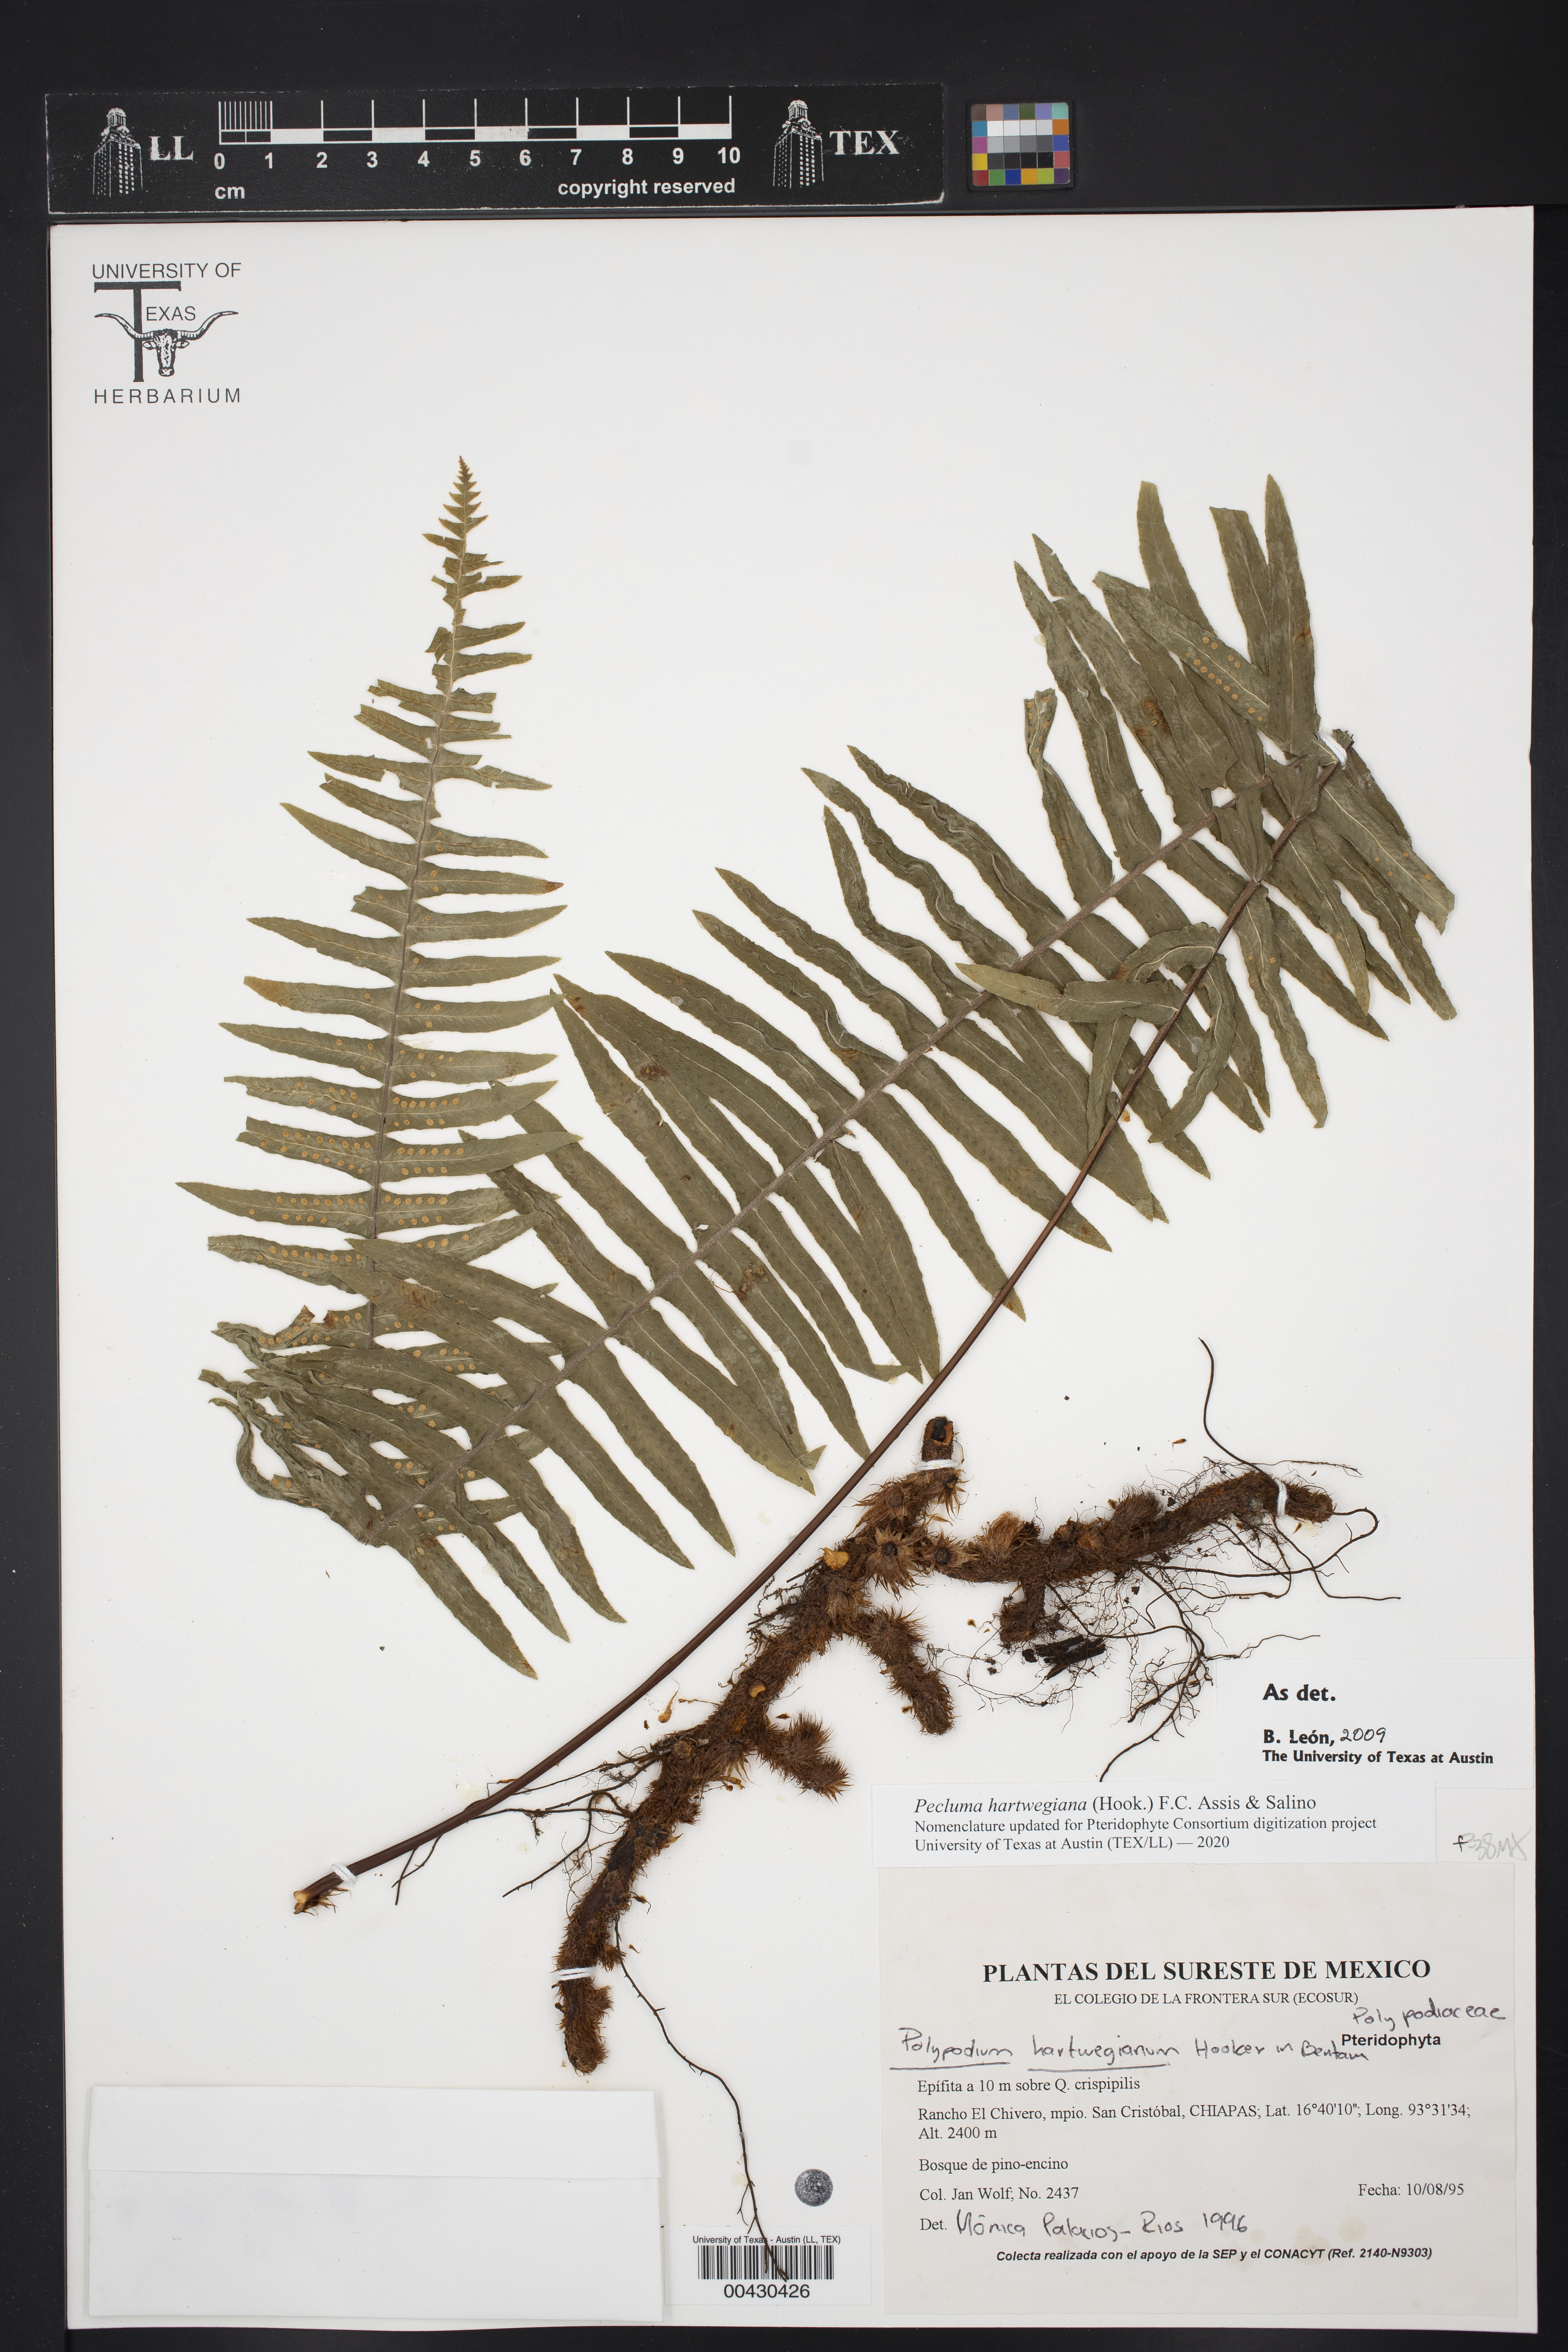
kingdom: Plantae
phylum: Tracheophyta
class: Polypodiopsida
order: Polypodiales
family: Polypodiaceae
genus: Pecluma
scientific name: Pecluma hartwegiana
